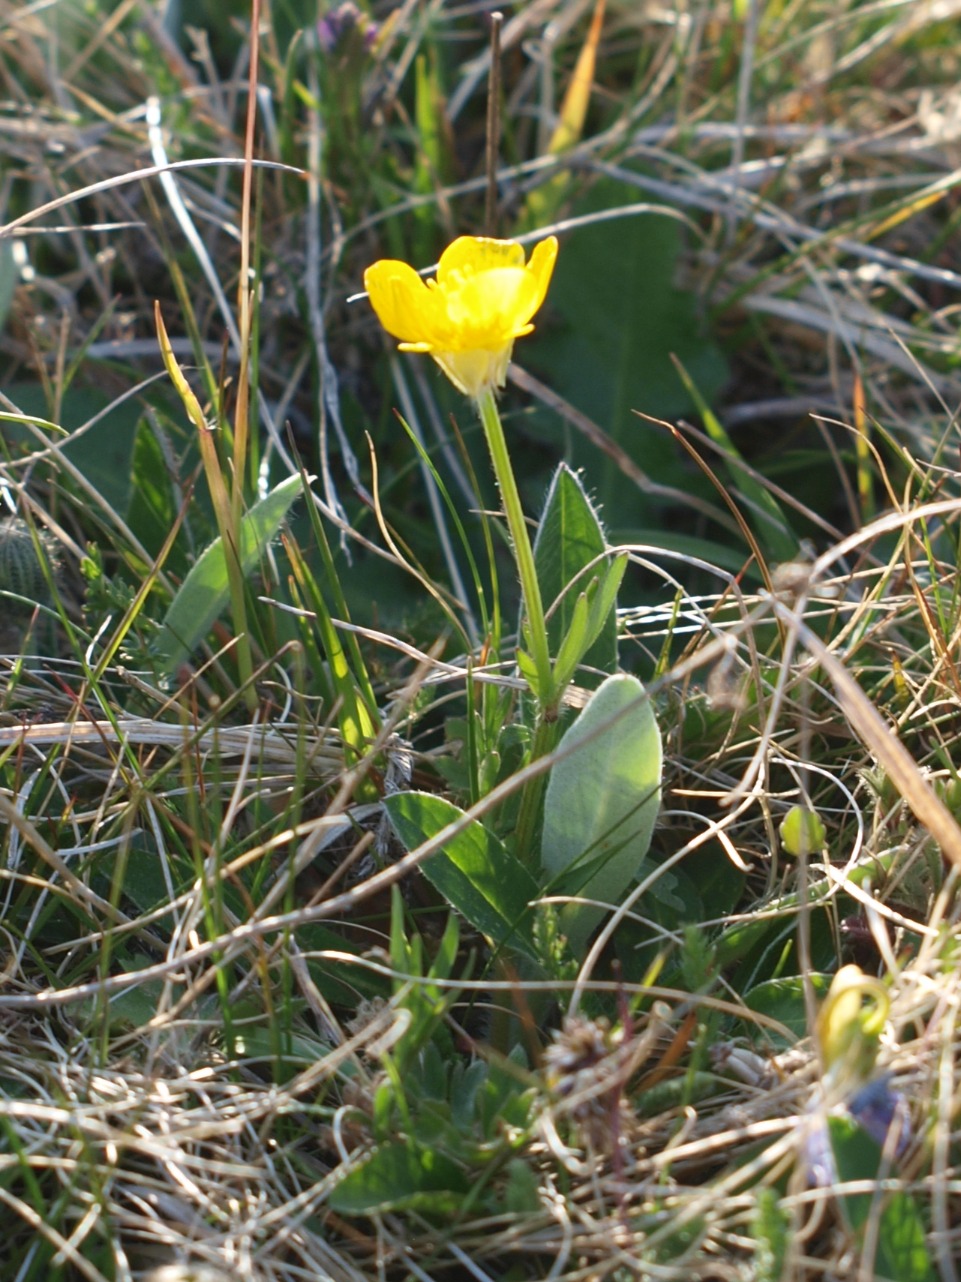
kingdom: Plantae
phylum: Tracheophyta
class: Magnoliopsida
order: Ranunculales
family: Ranunculaceae
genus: Ranunculus
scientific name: Ranunculus bulbosus
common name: Knold-ranunkel
